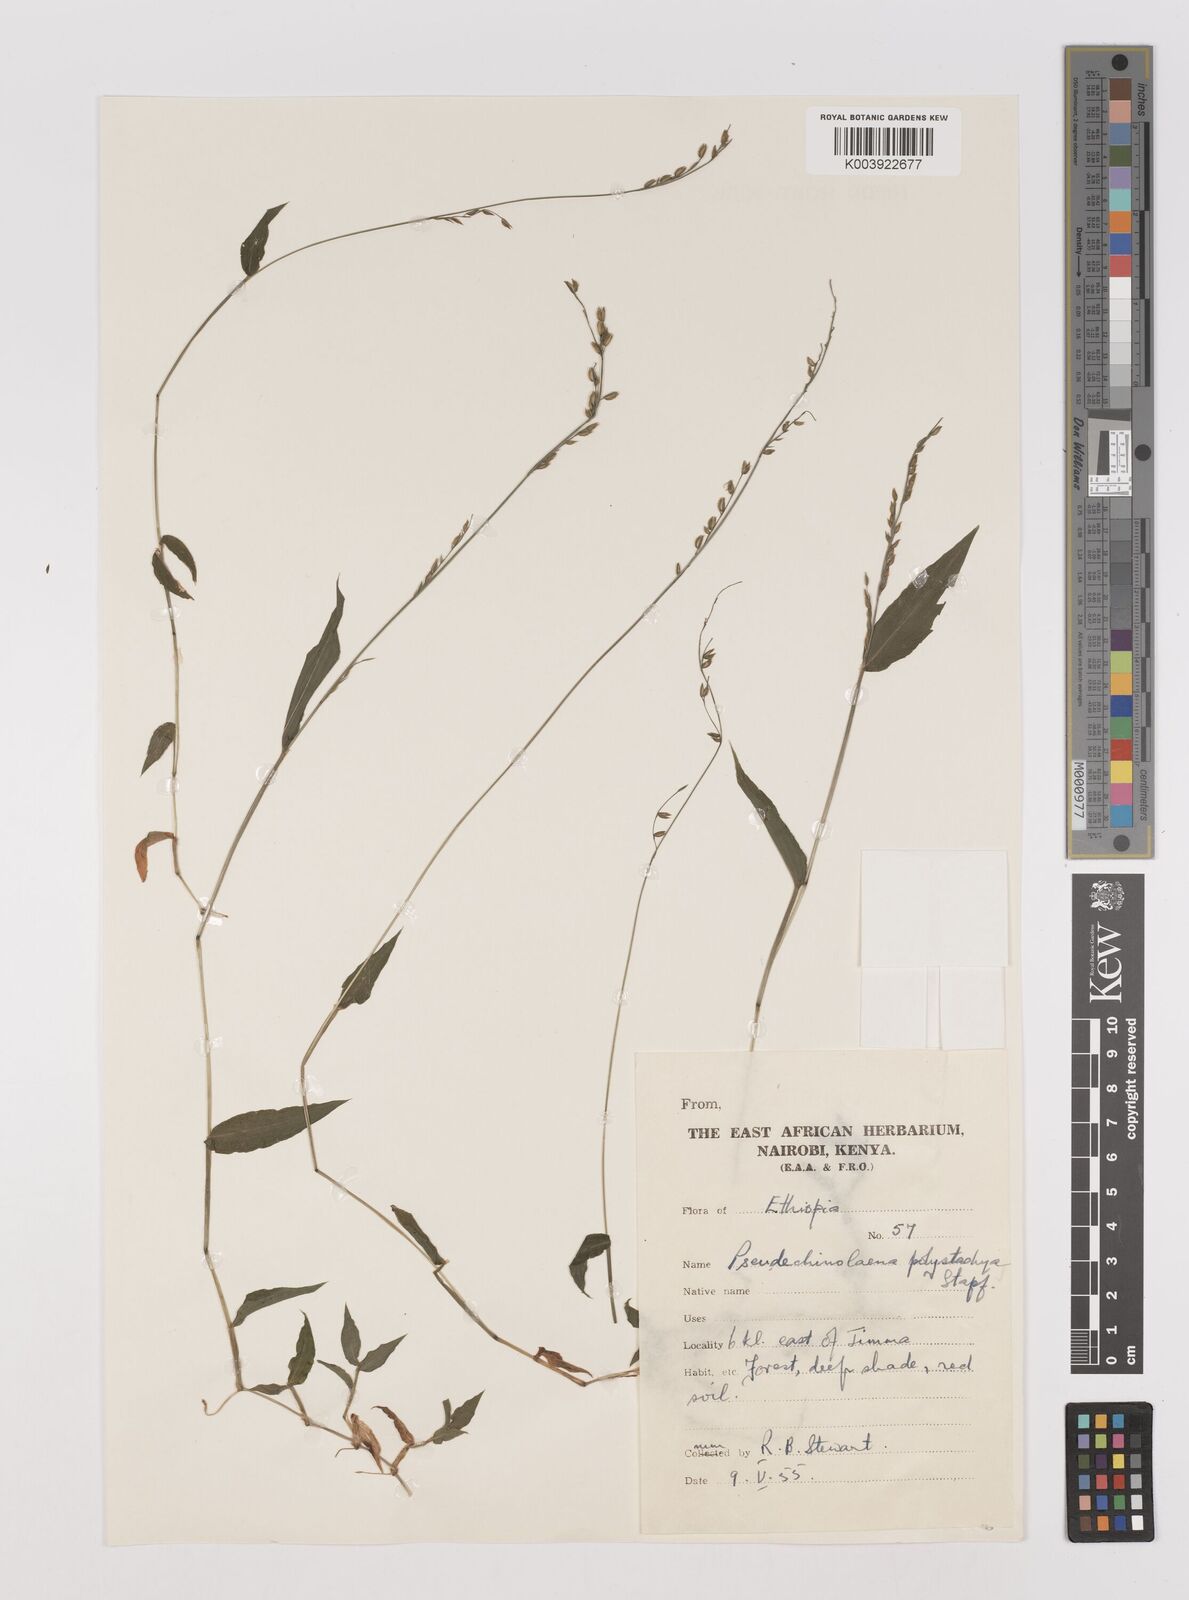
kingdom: Plantae
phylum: Tracheophyta
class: Liliopsida
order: Poales
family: Poaceae
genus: Pseudechinolaena
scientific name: Pseudechinolaena polystachya
